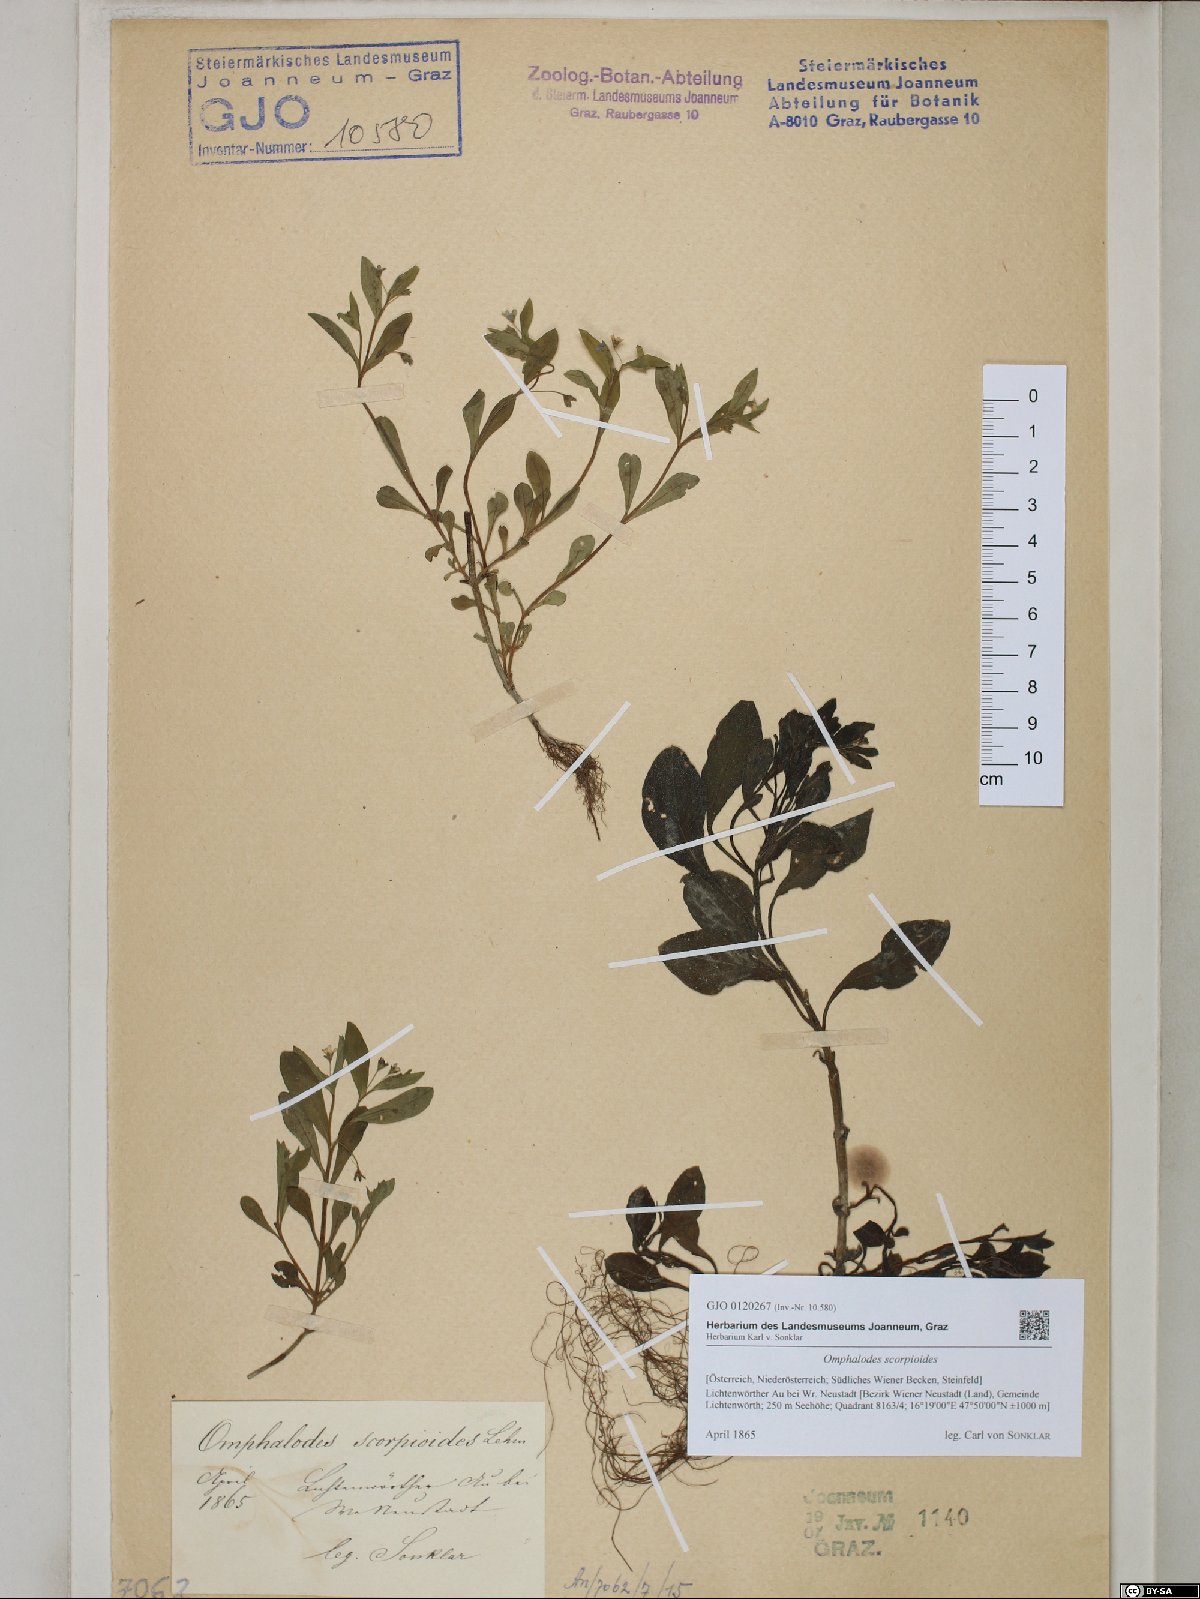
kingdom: Plantae
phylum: Tracheophyta
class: Magnoliopsida
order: Boraginales
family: Boraginaceae
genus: Memoremea
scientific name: Memoremea scorpioides
